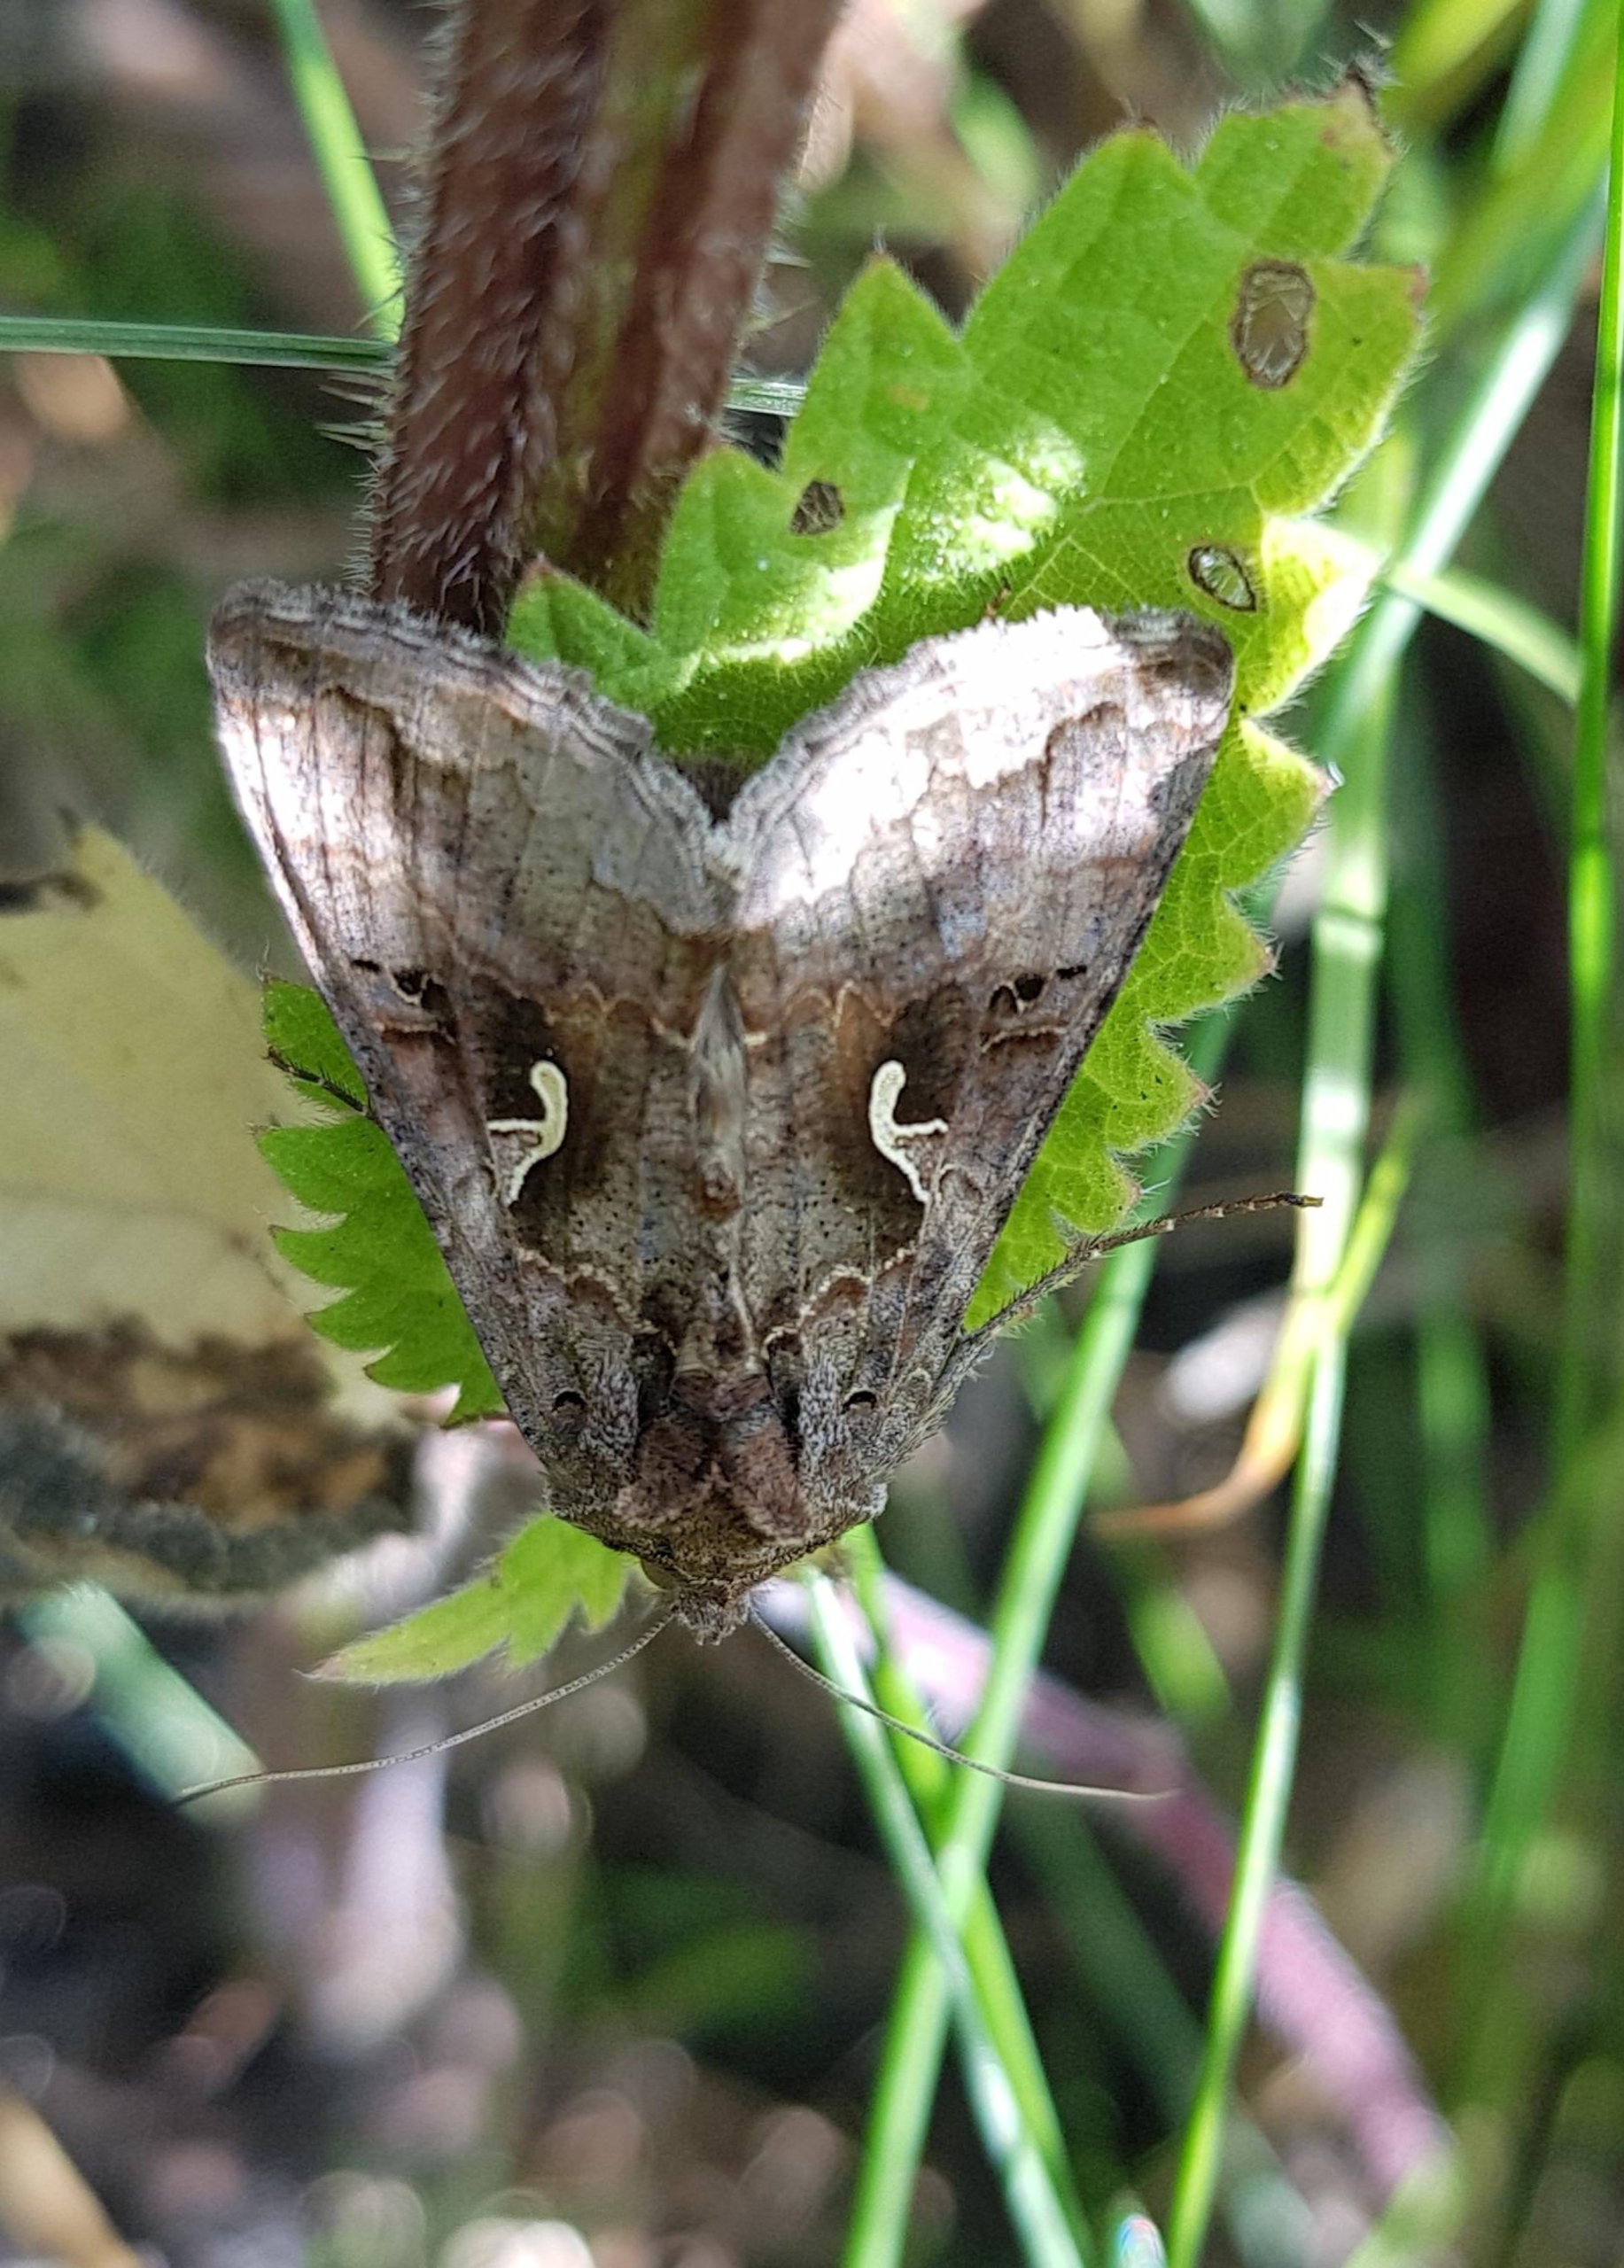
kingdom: Animalia
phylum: Arthropoda
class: Insecta
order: Lepidoptera
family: Noctuidae
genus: Autographa
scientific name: Autographa gamma
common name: Gammaugle
